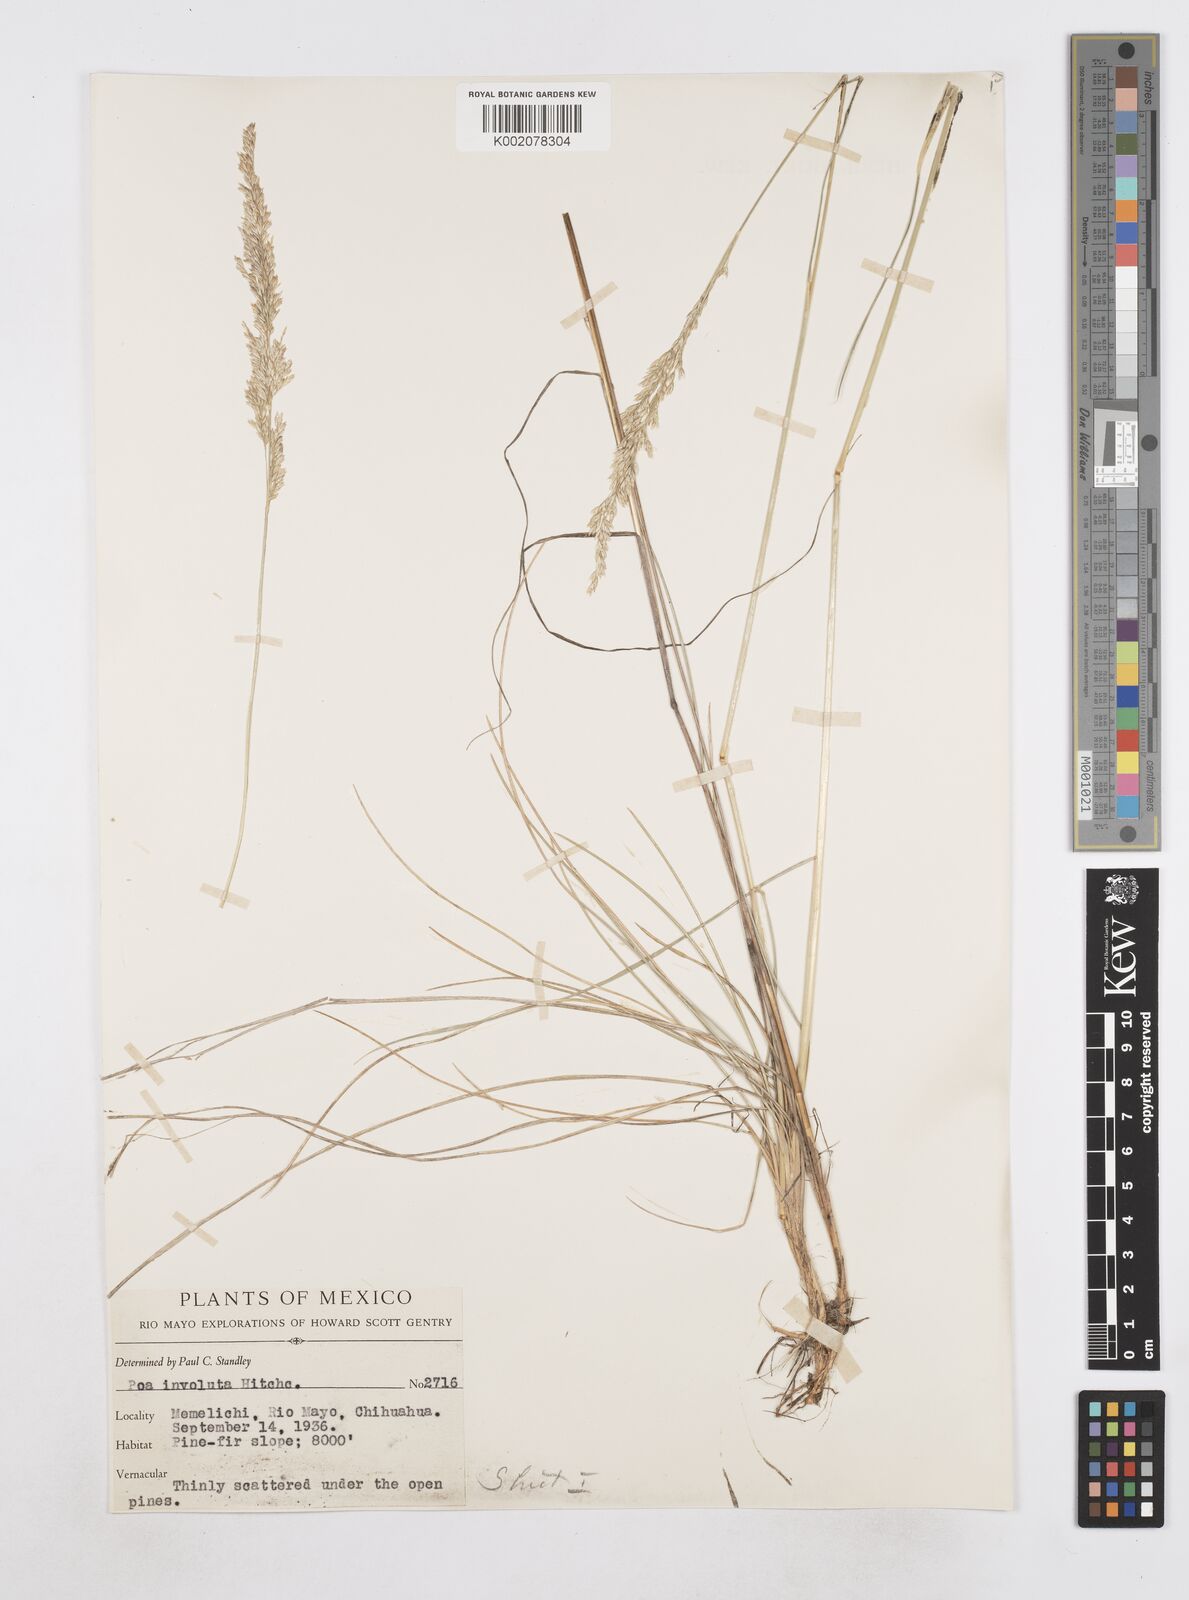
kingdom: Plantae
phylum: Tracheophyta
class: Liliopsida
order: Poales
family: Poaceae
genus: Poa
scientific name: Poa strictiramea
